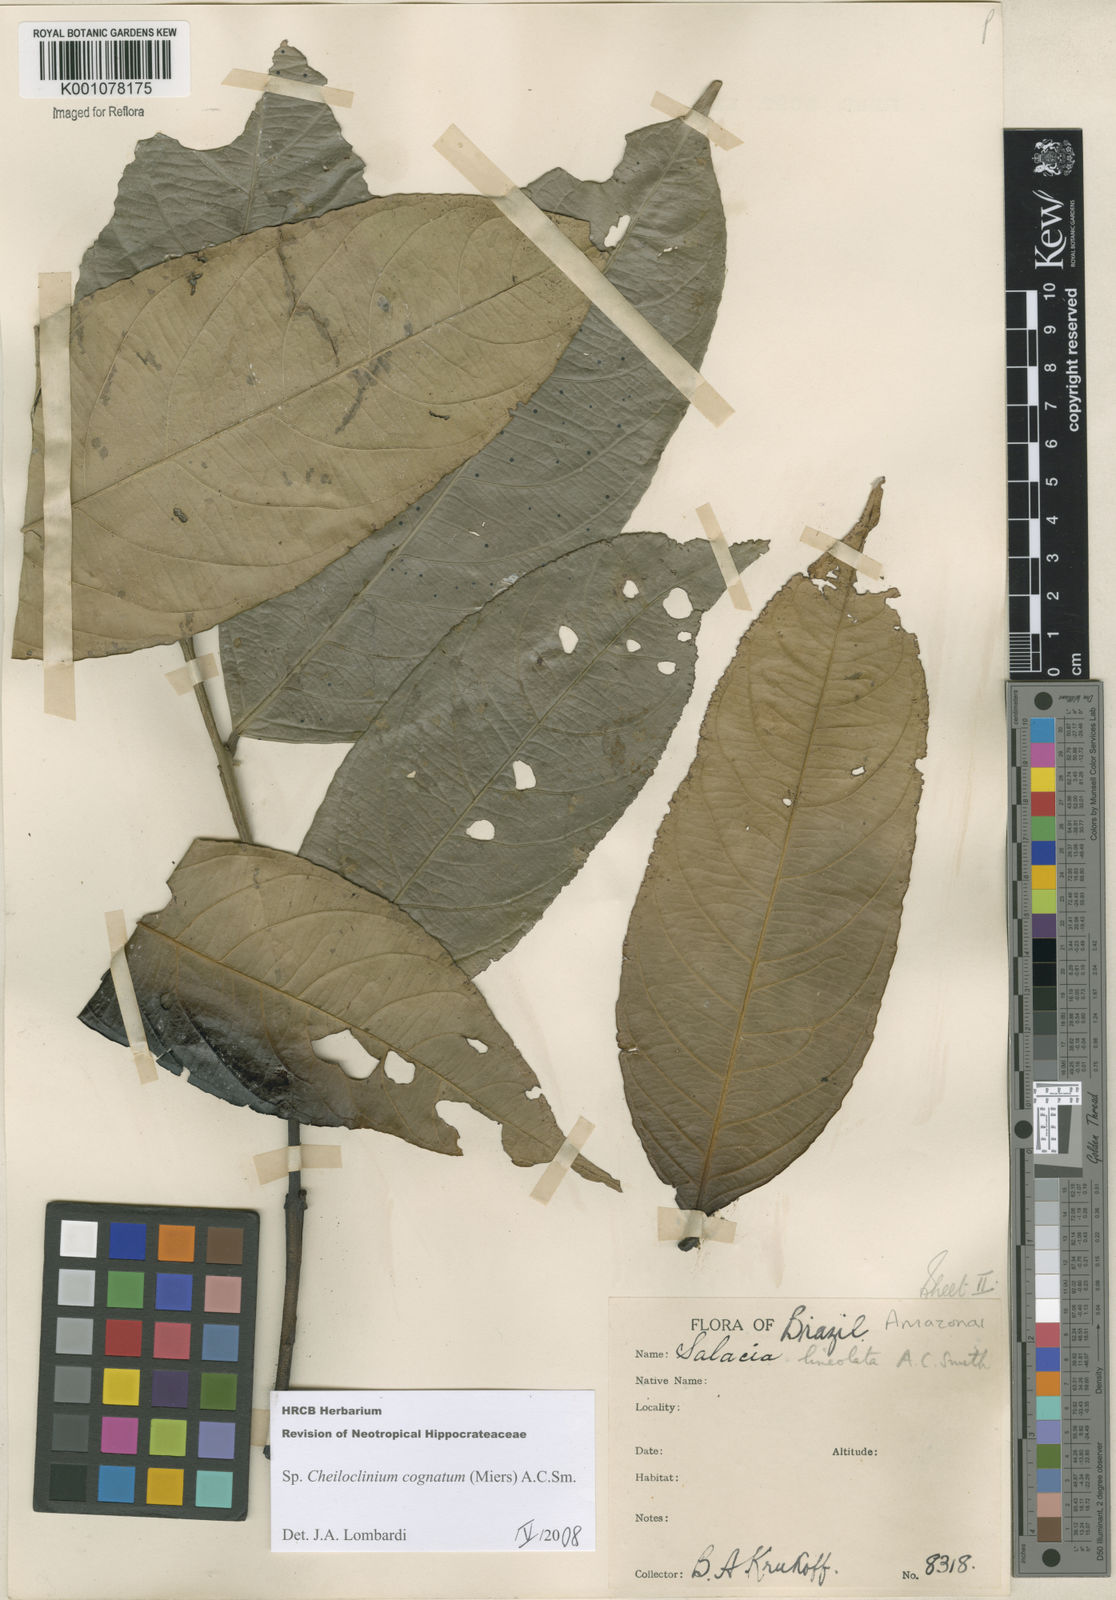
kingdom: Plantae
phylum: Tracheophyta
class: Magnoliopsida
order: Celastrales
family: Celastraceae
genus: Cheiloclinium
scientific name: Cheiloclinium cognatum
